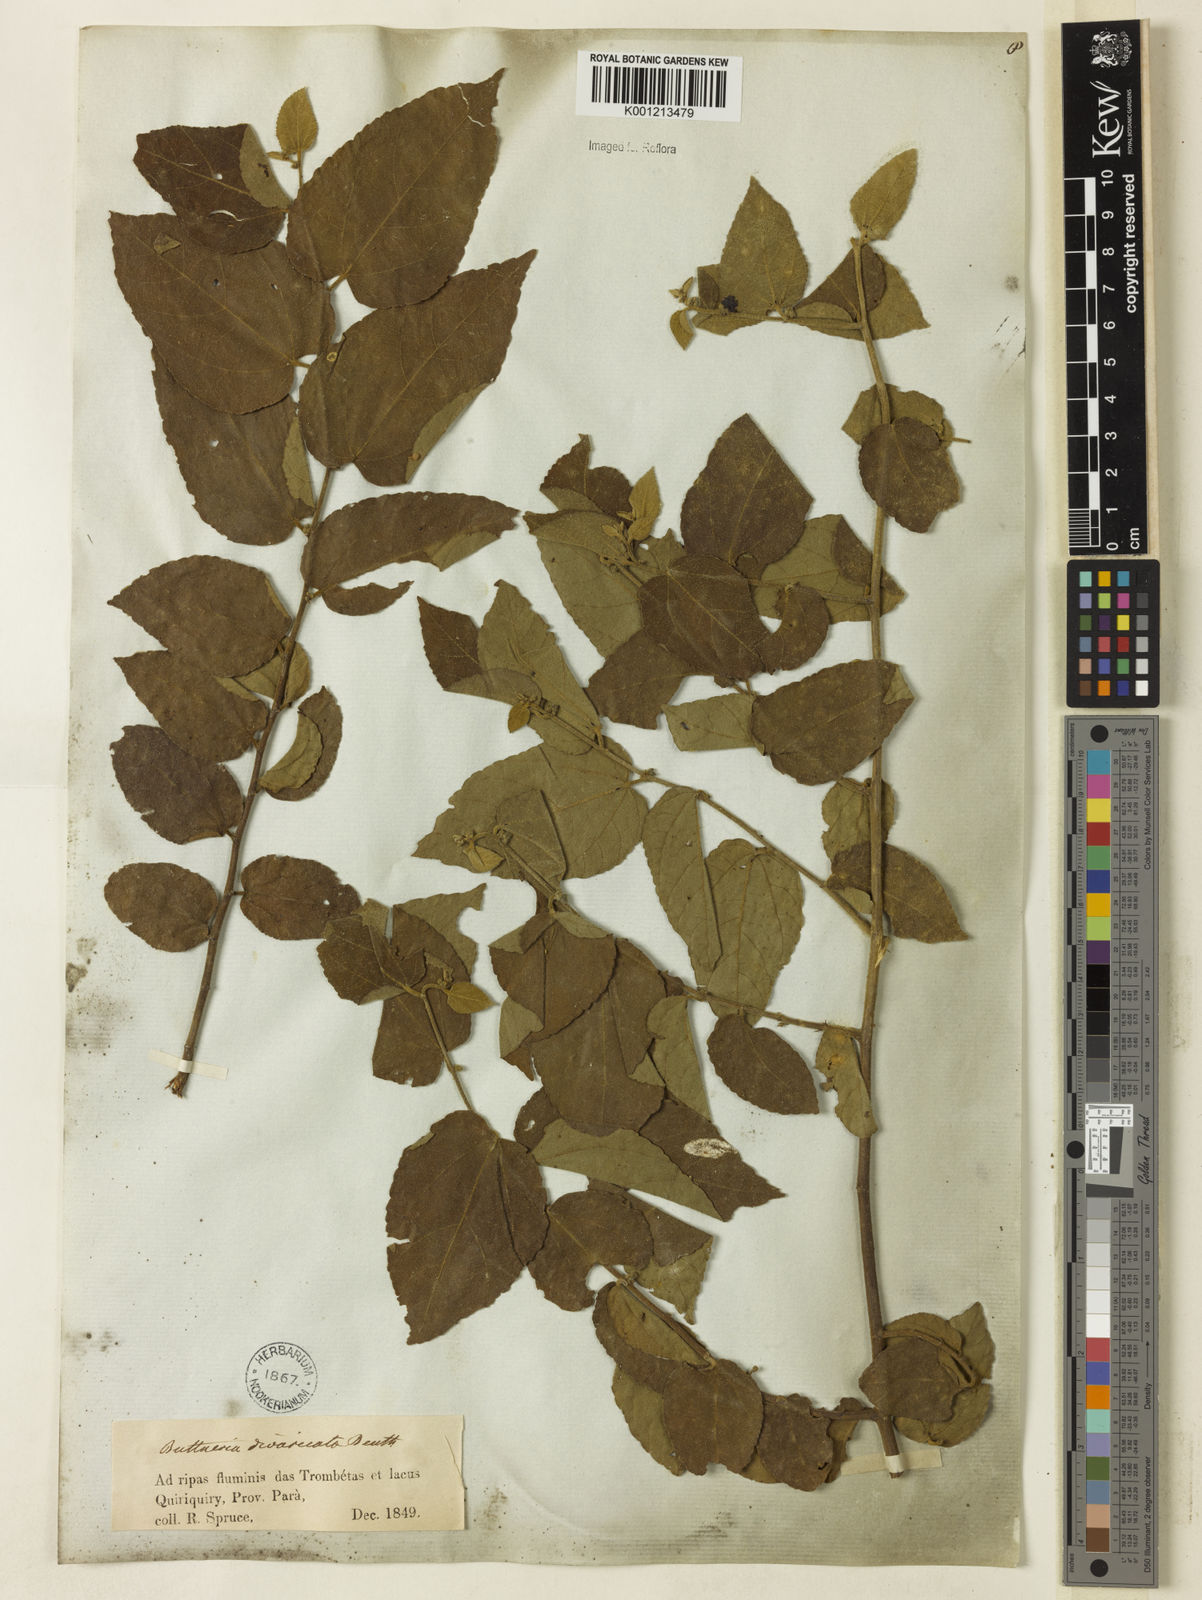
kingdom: Plantae
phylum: Tracheophyta
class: Magnoliopsida
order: Malvales
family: Malvaceae
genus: Byttneria
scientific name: Byttneria divaricata
